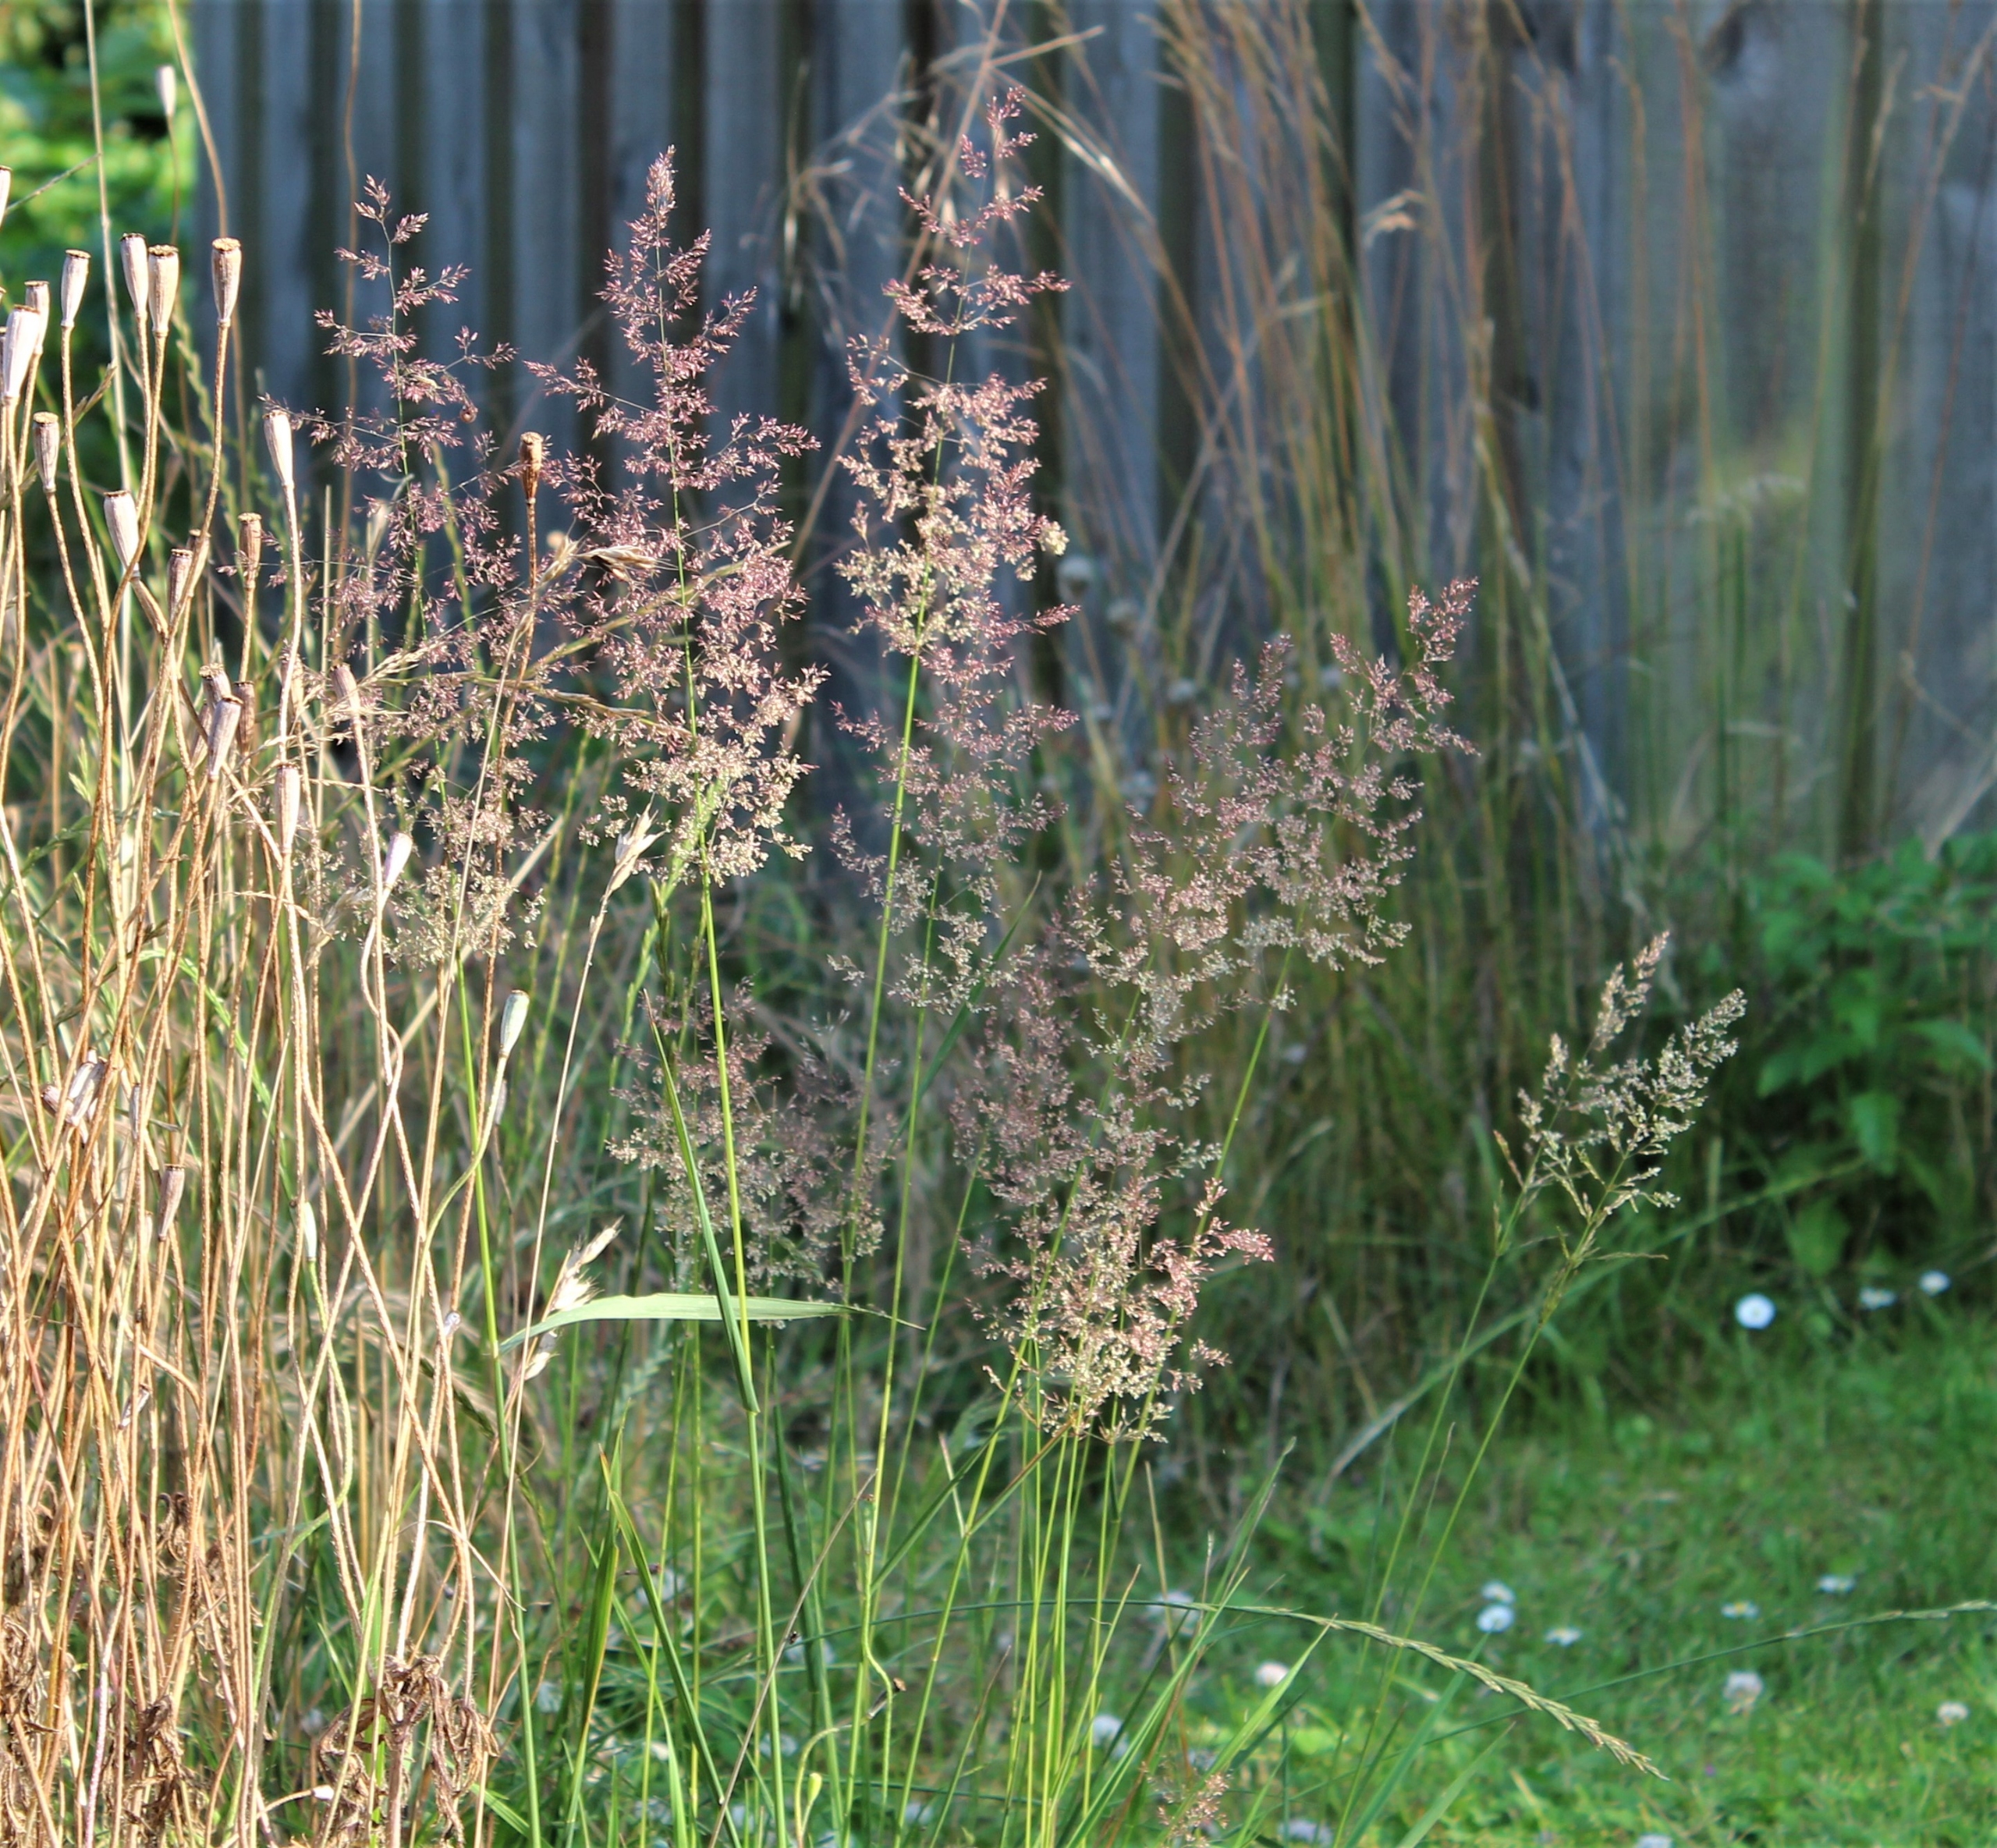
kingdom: Plantae
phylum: Tracheophyta
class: Liliopsida
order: Poales
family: Poaceae
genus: Agrostis
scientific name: Agrostis gigantea
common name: Stortoppet hvene
